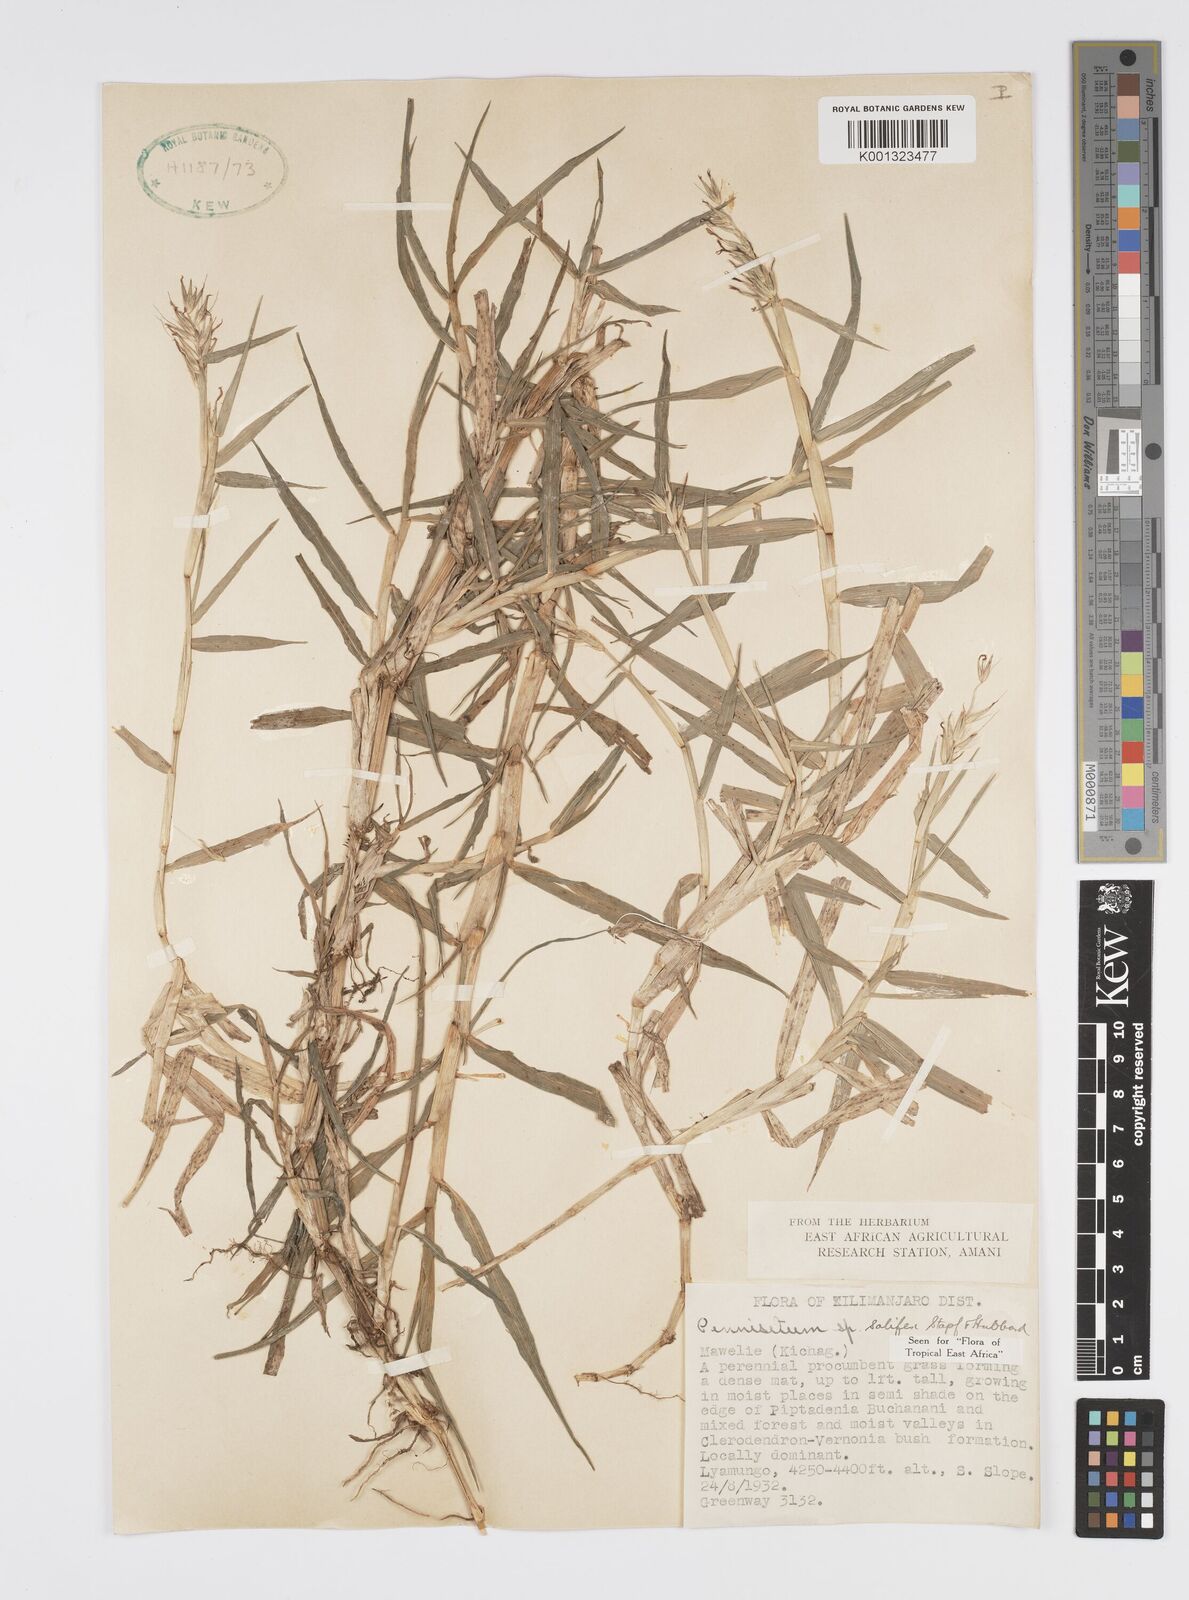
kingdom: Plantae
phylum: Tracheophyta
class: Liliopsida
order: Poales
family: Poaceae
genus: Cenchrus
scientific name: Cenchrus riparius
